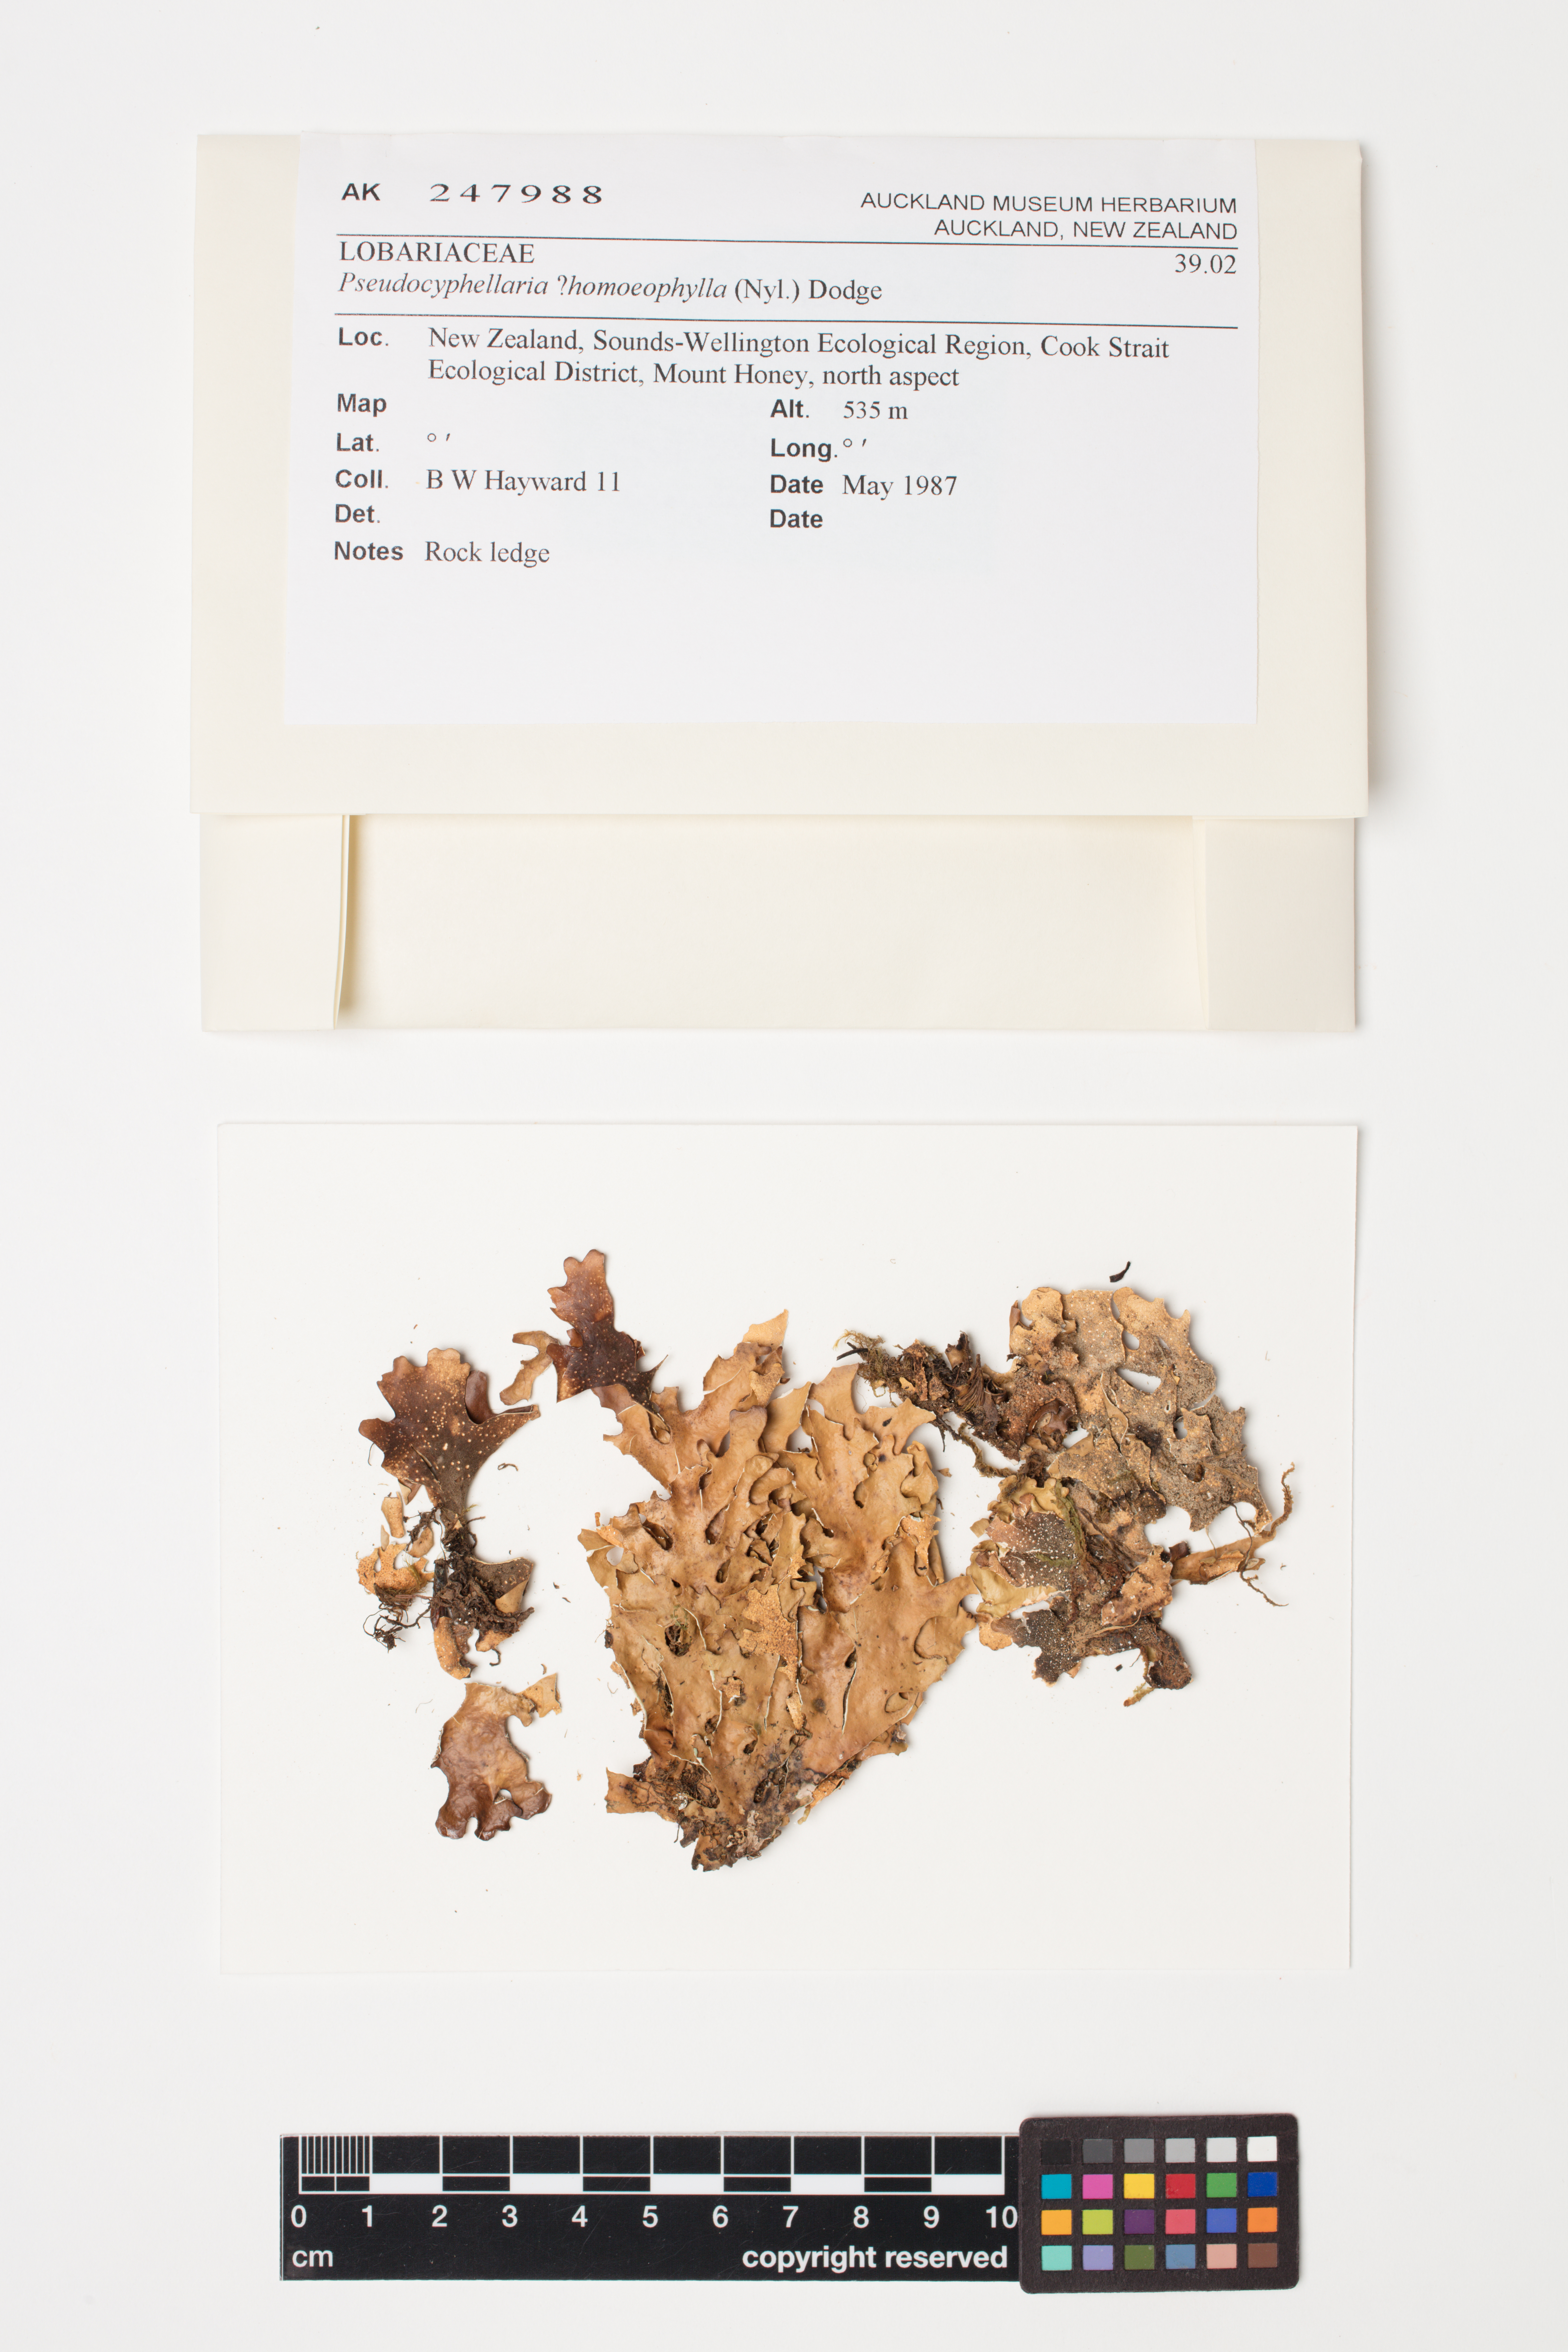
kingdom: Fungi
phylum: Ascomycota
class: Lecanoromycetes
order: Peltigerales
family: Lobariaceae
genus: Pseudocyphellaria
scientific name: Pseudocyphellaria homeophylla
